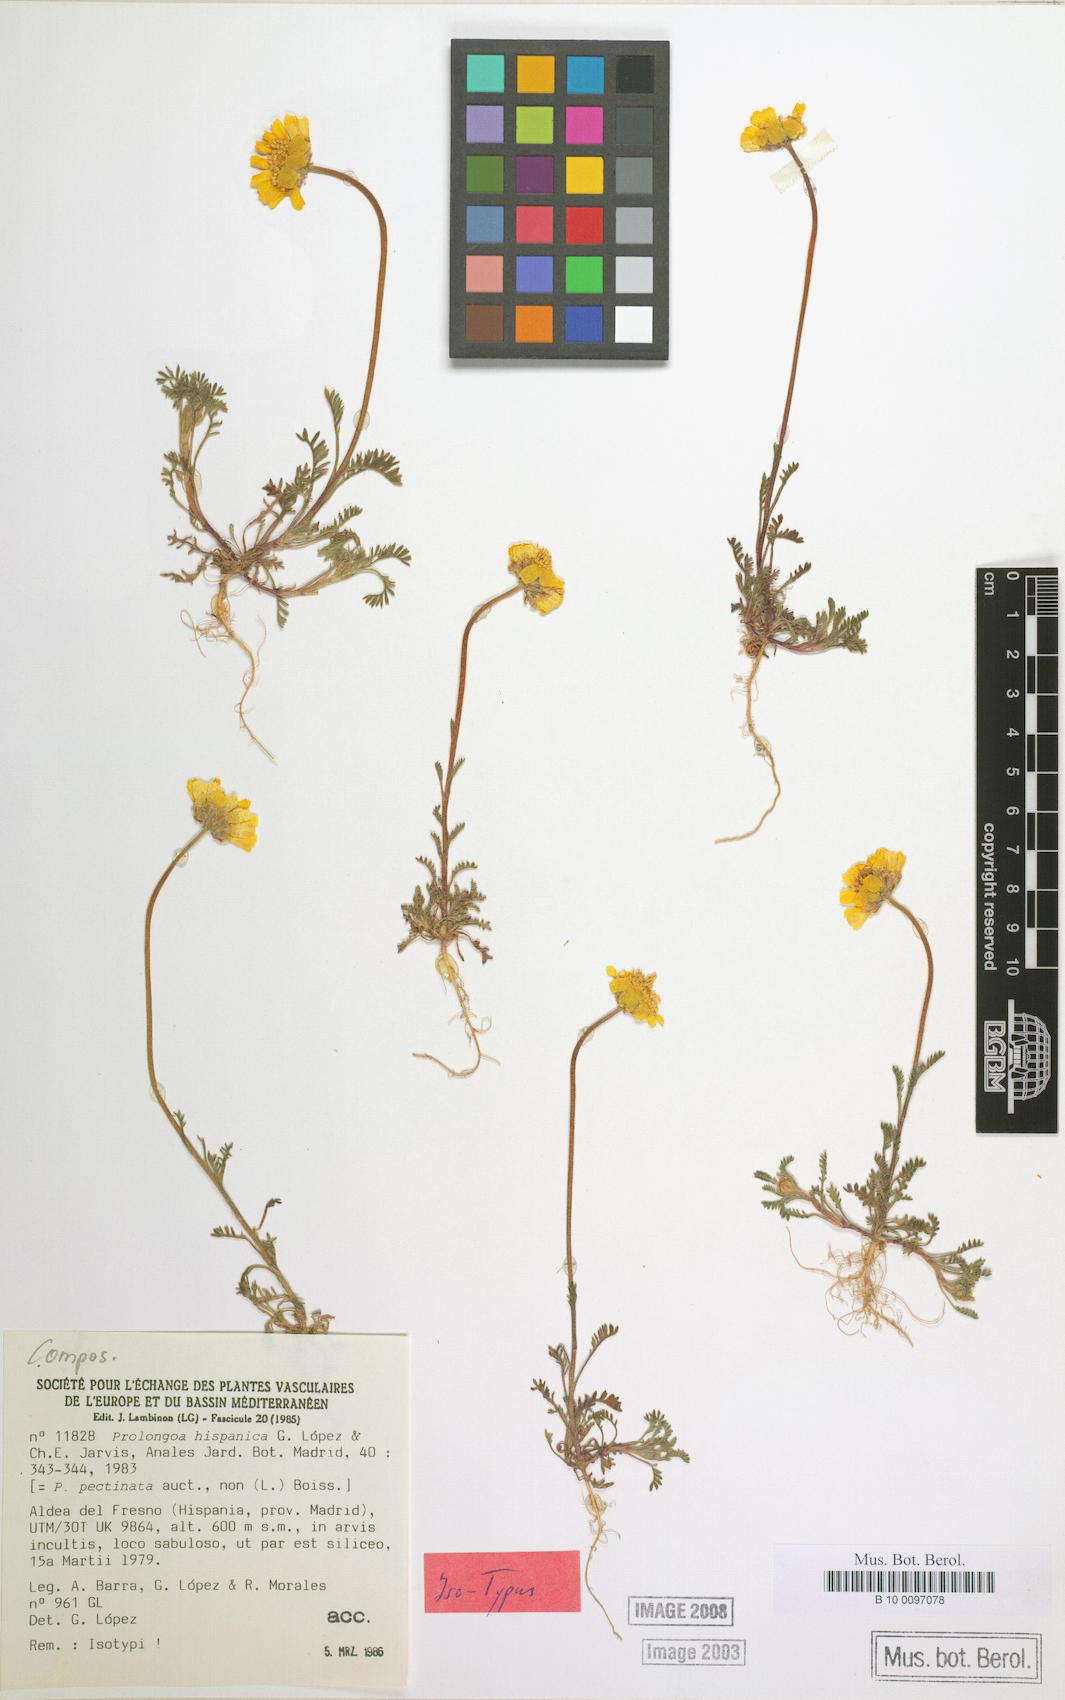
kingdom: Plantae
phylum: Tracheophyta
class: Magnoliopsida
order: Asterales
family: Asteraceae
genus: Prolongoa
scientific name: Prolongoa hispanica
